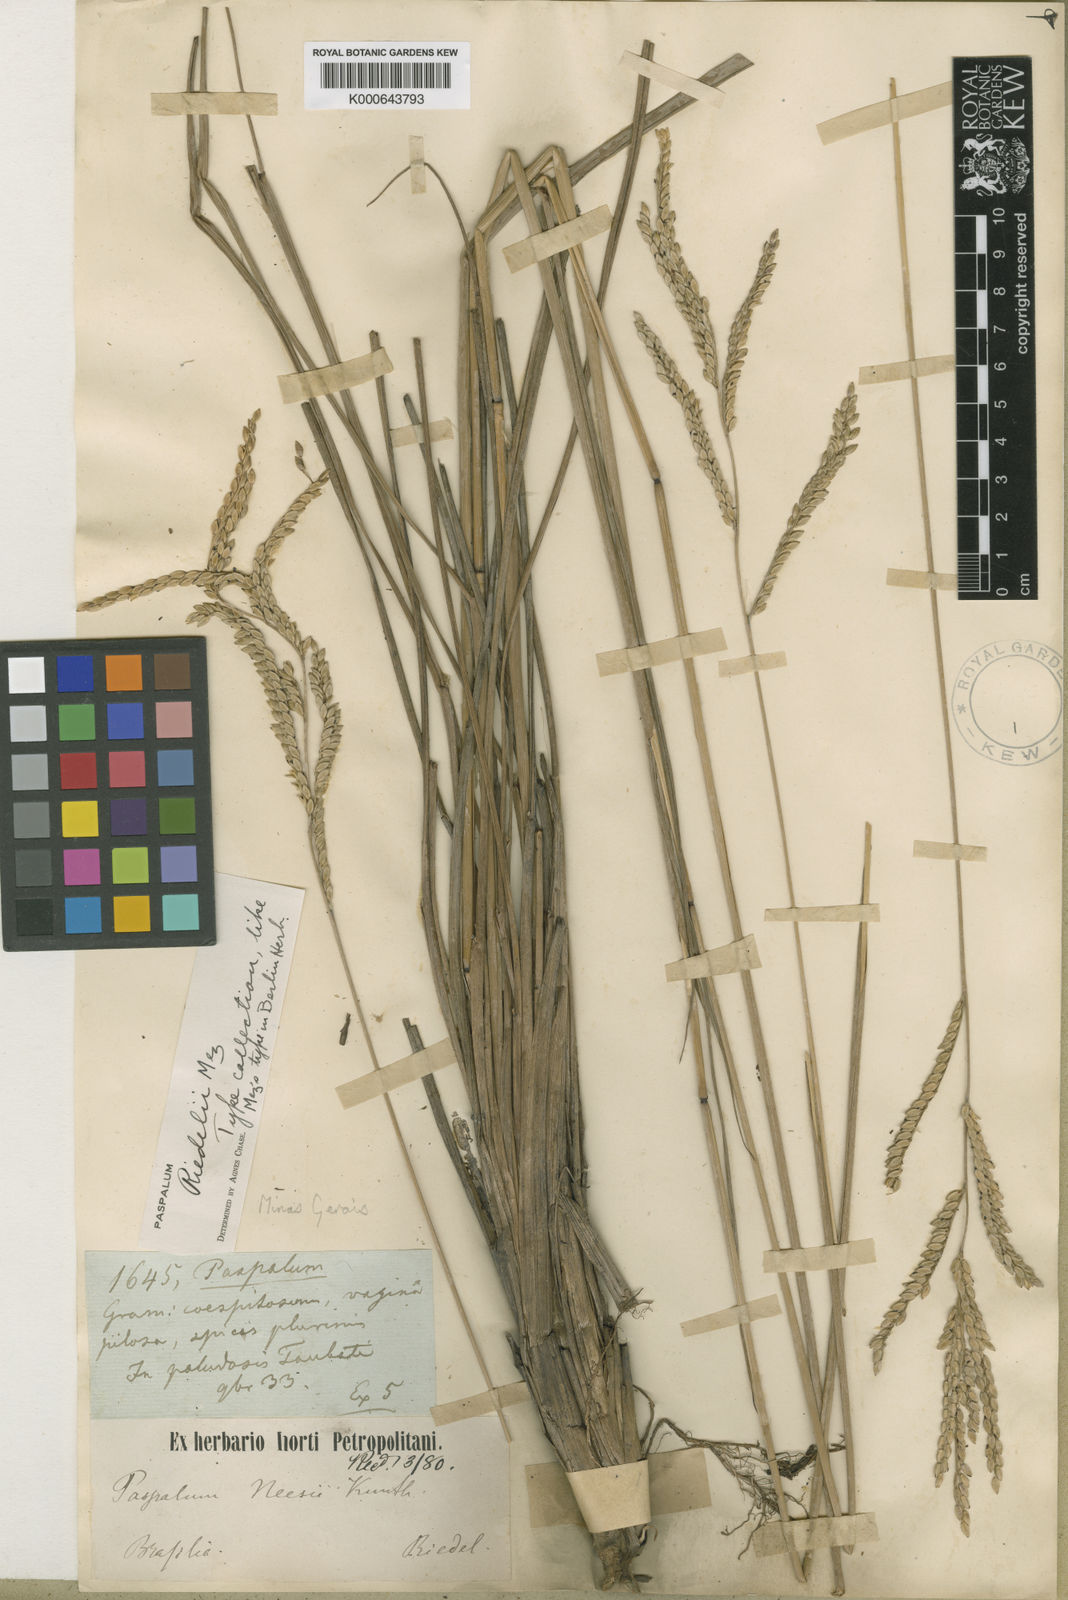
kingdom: Plantae
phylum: Tracheophyta
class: Liliopsida
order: Poales
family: Poaceae
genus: Paspalum
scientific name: Paspalum riedelii
